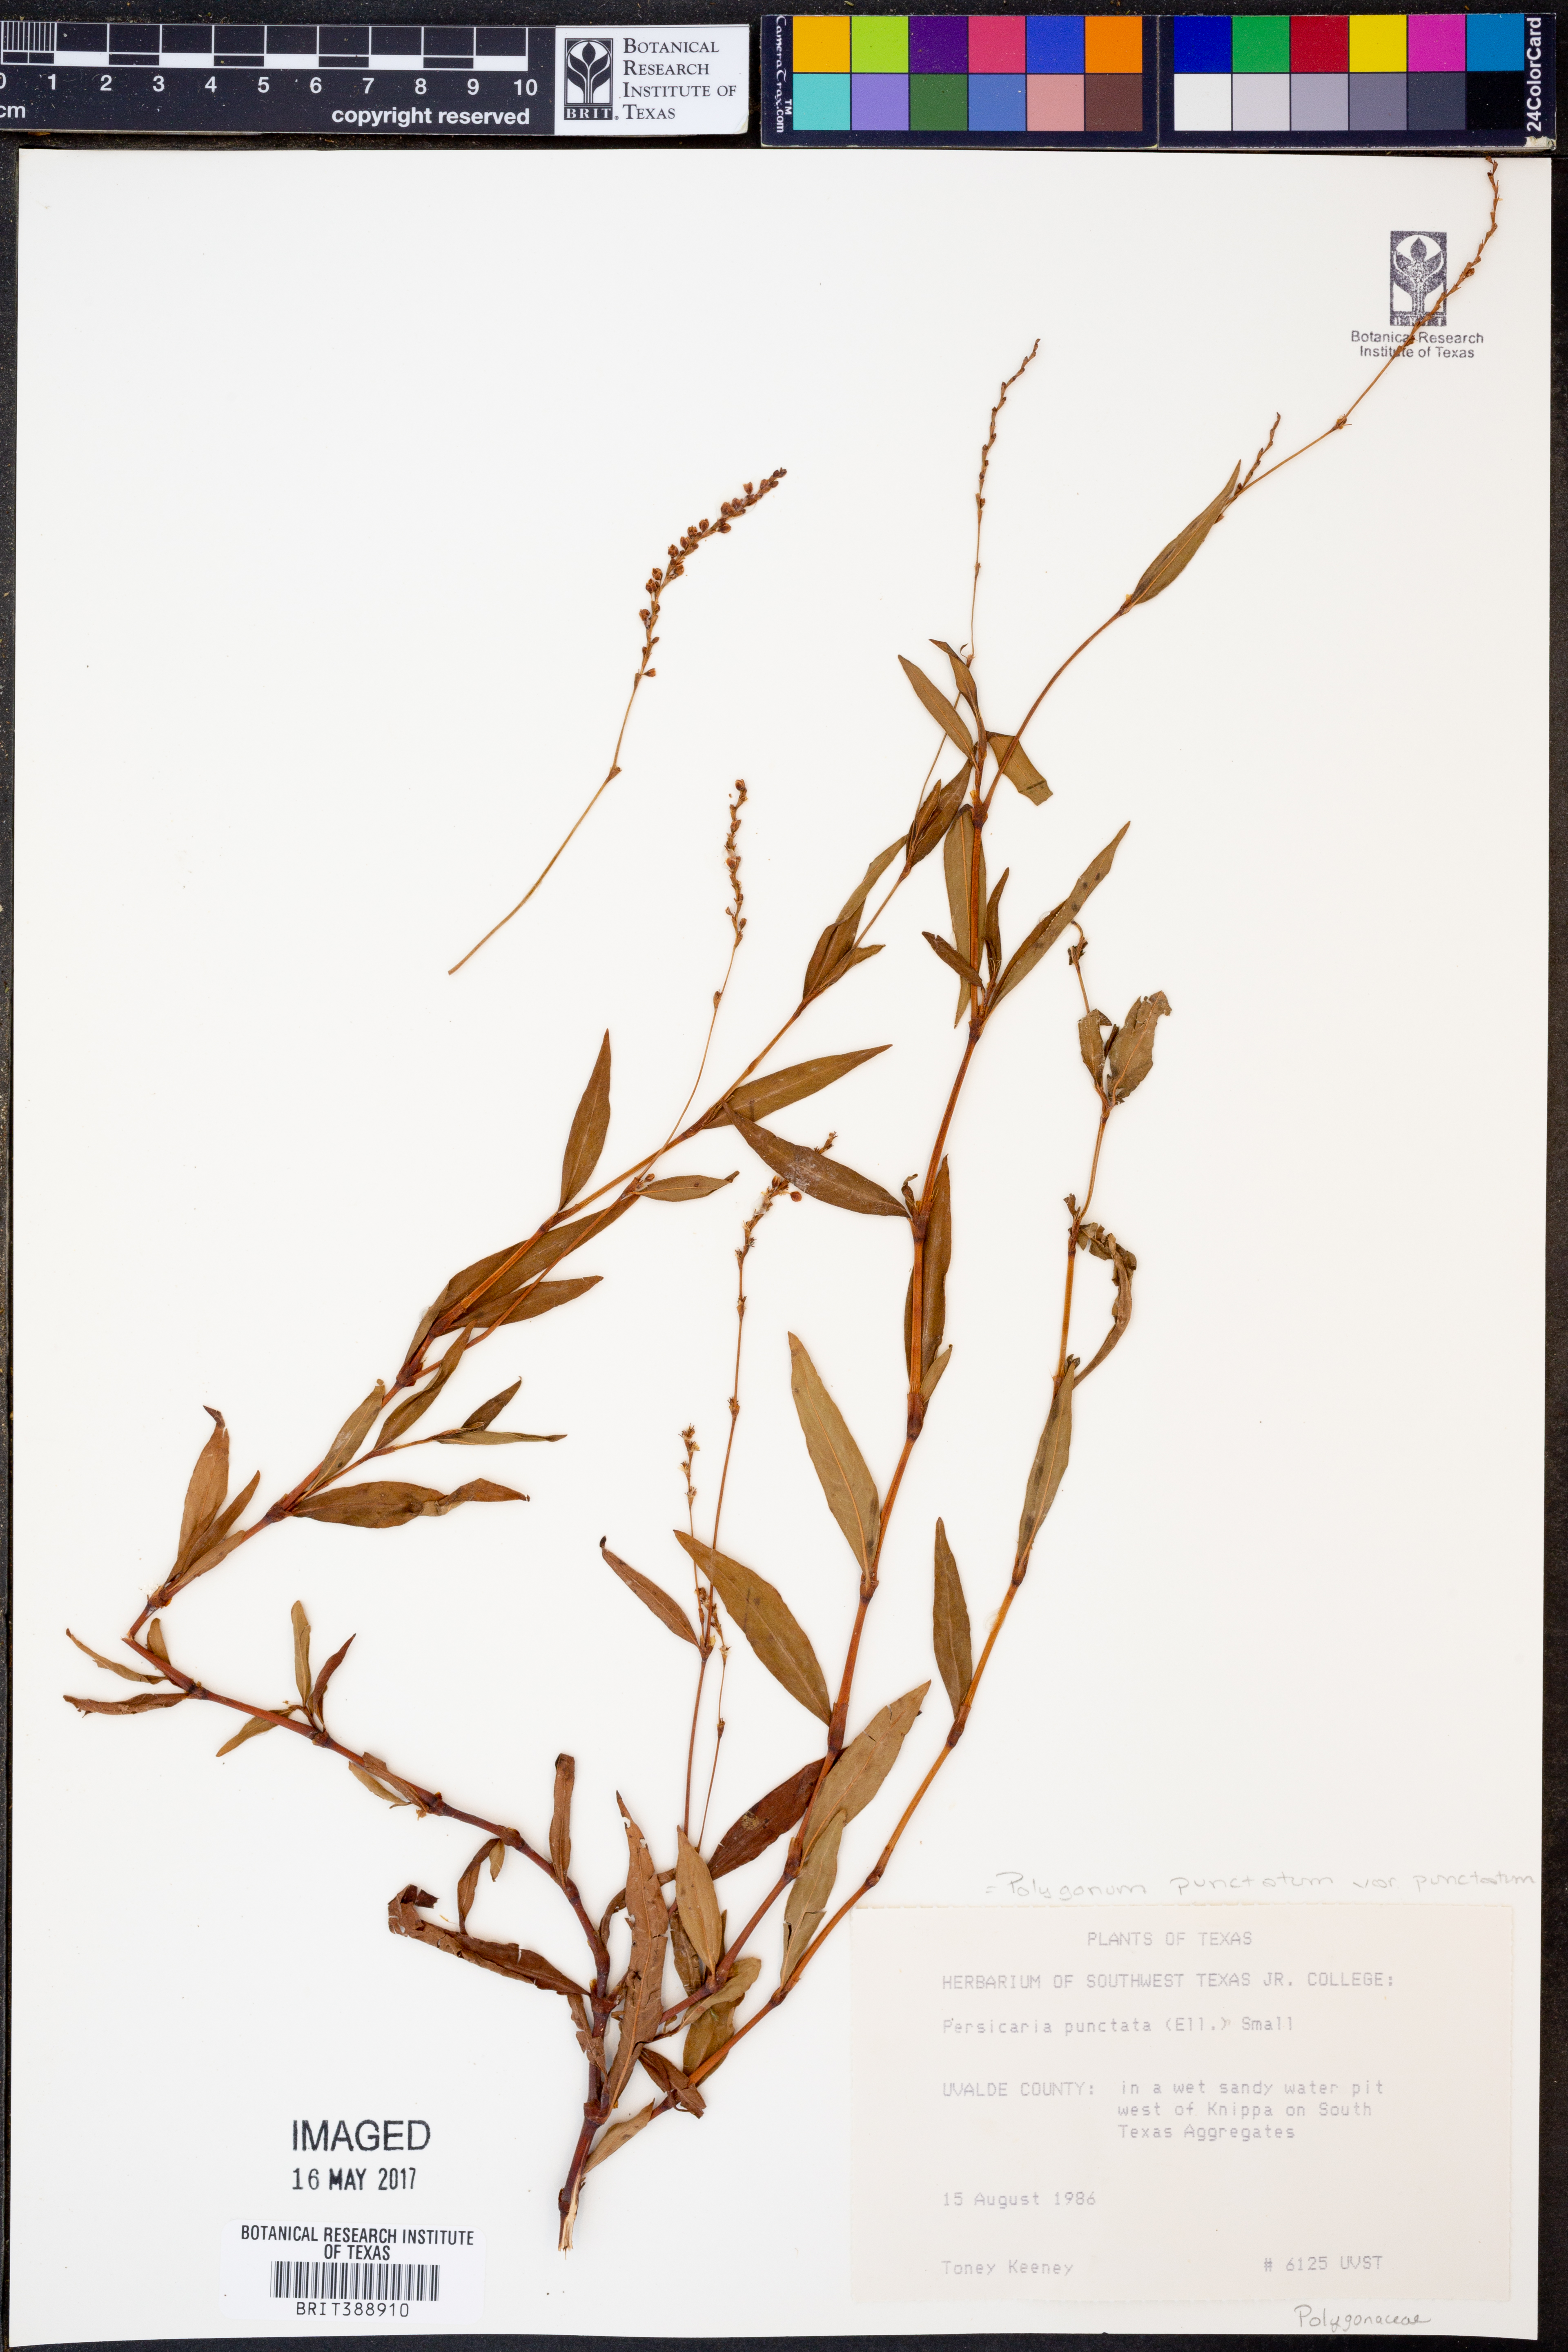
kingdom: Plantae
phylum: Tracheophyta
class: Magnoliopsida
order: Caryophyllales
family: Polygonaceae
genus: Persicaria
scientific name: Persicaria punctata
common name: Dotted smartweed
